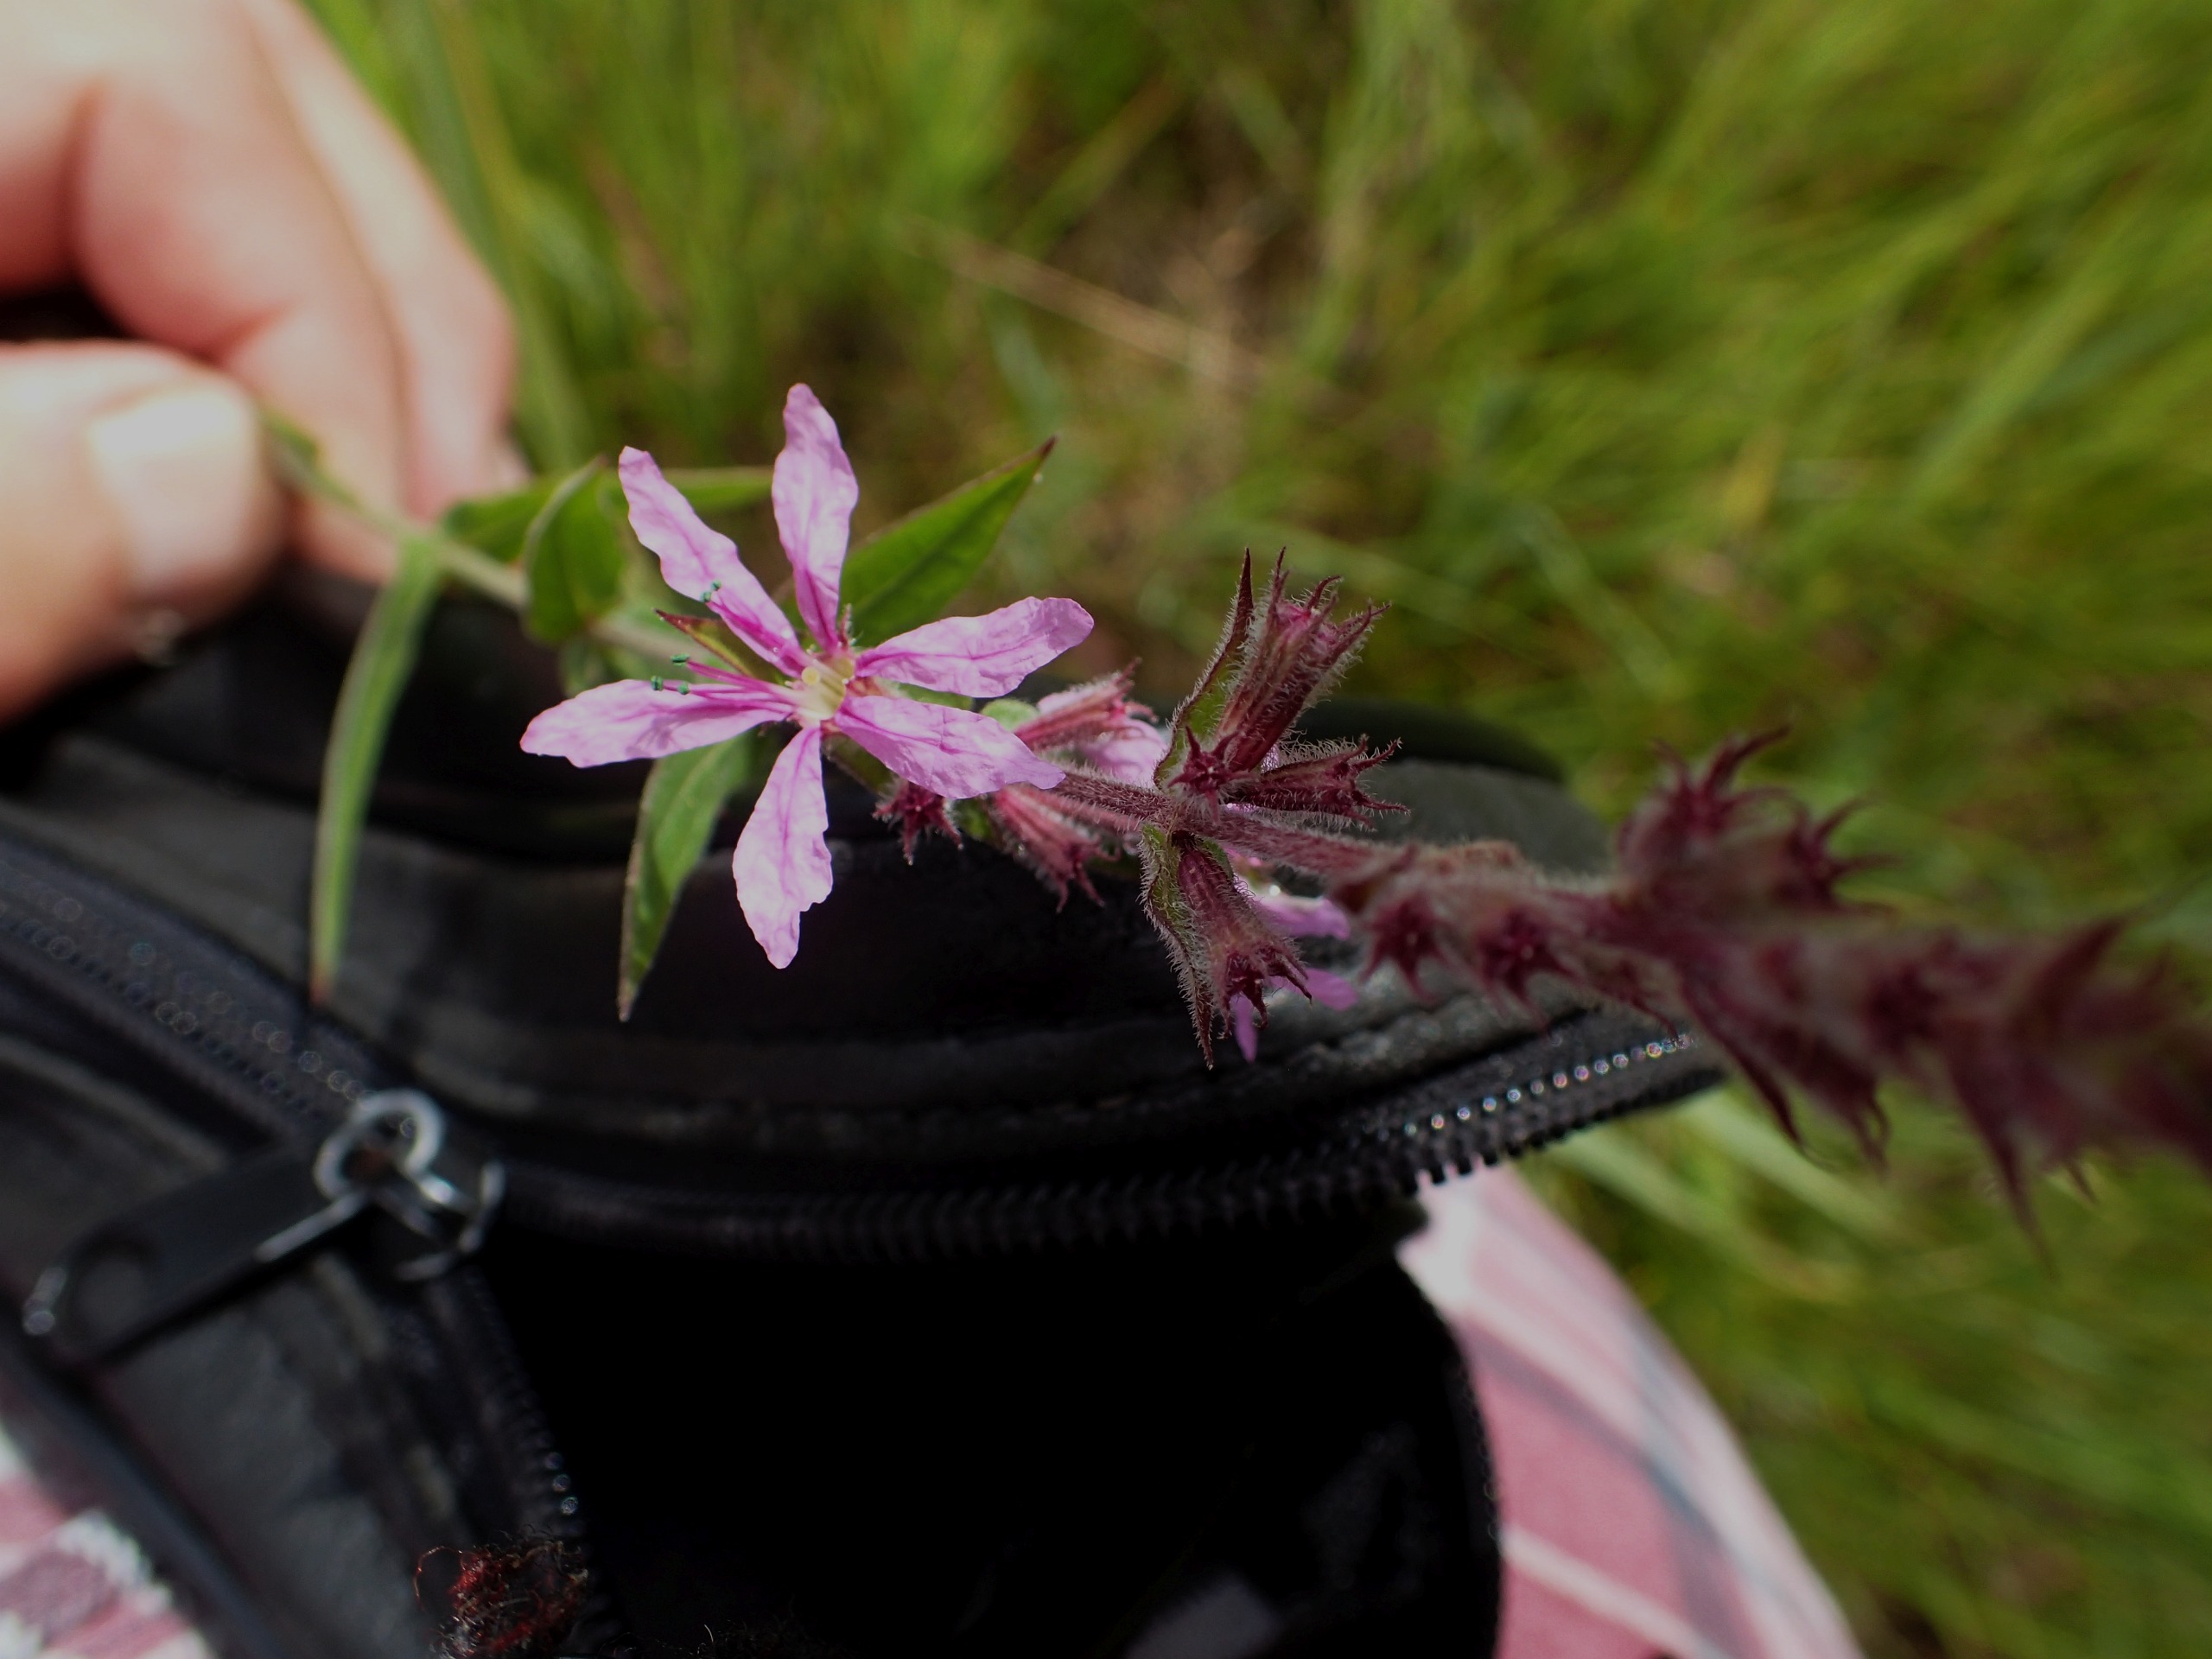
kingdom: Plantae
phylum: Tracheophyta
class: Magnoliopsida
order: Myrtales
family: Lythraceae
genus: Lythrum
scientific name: Lythrum salicaria
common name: Kattehale
